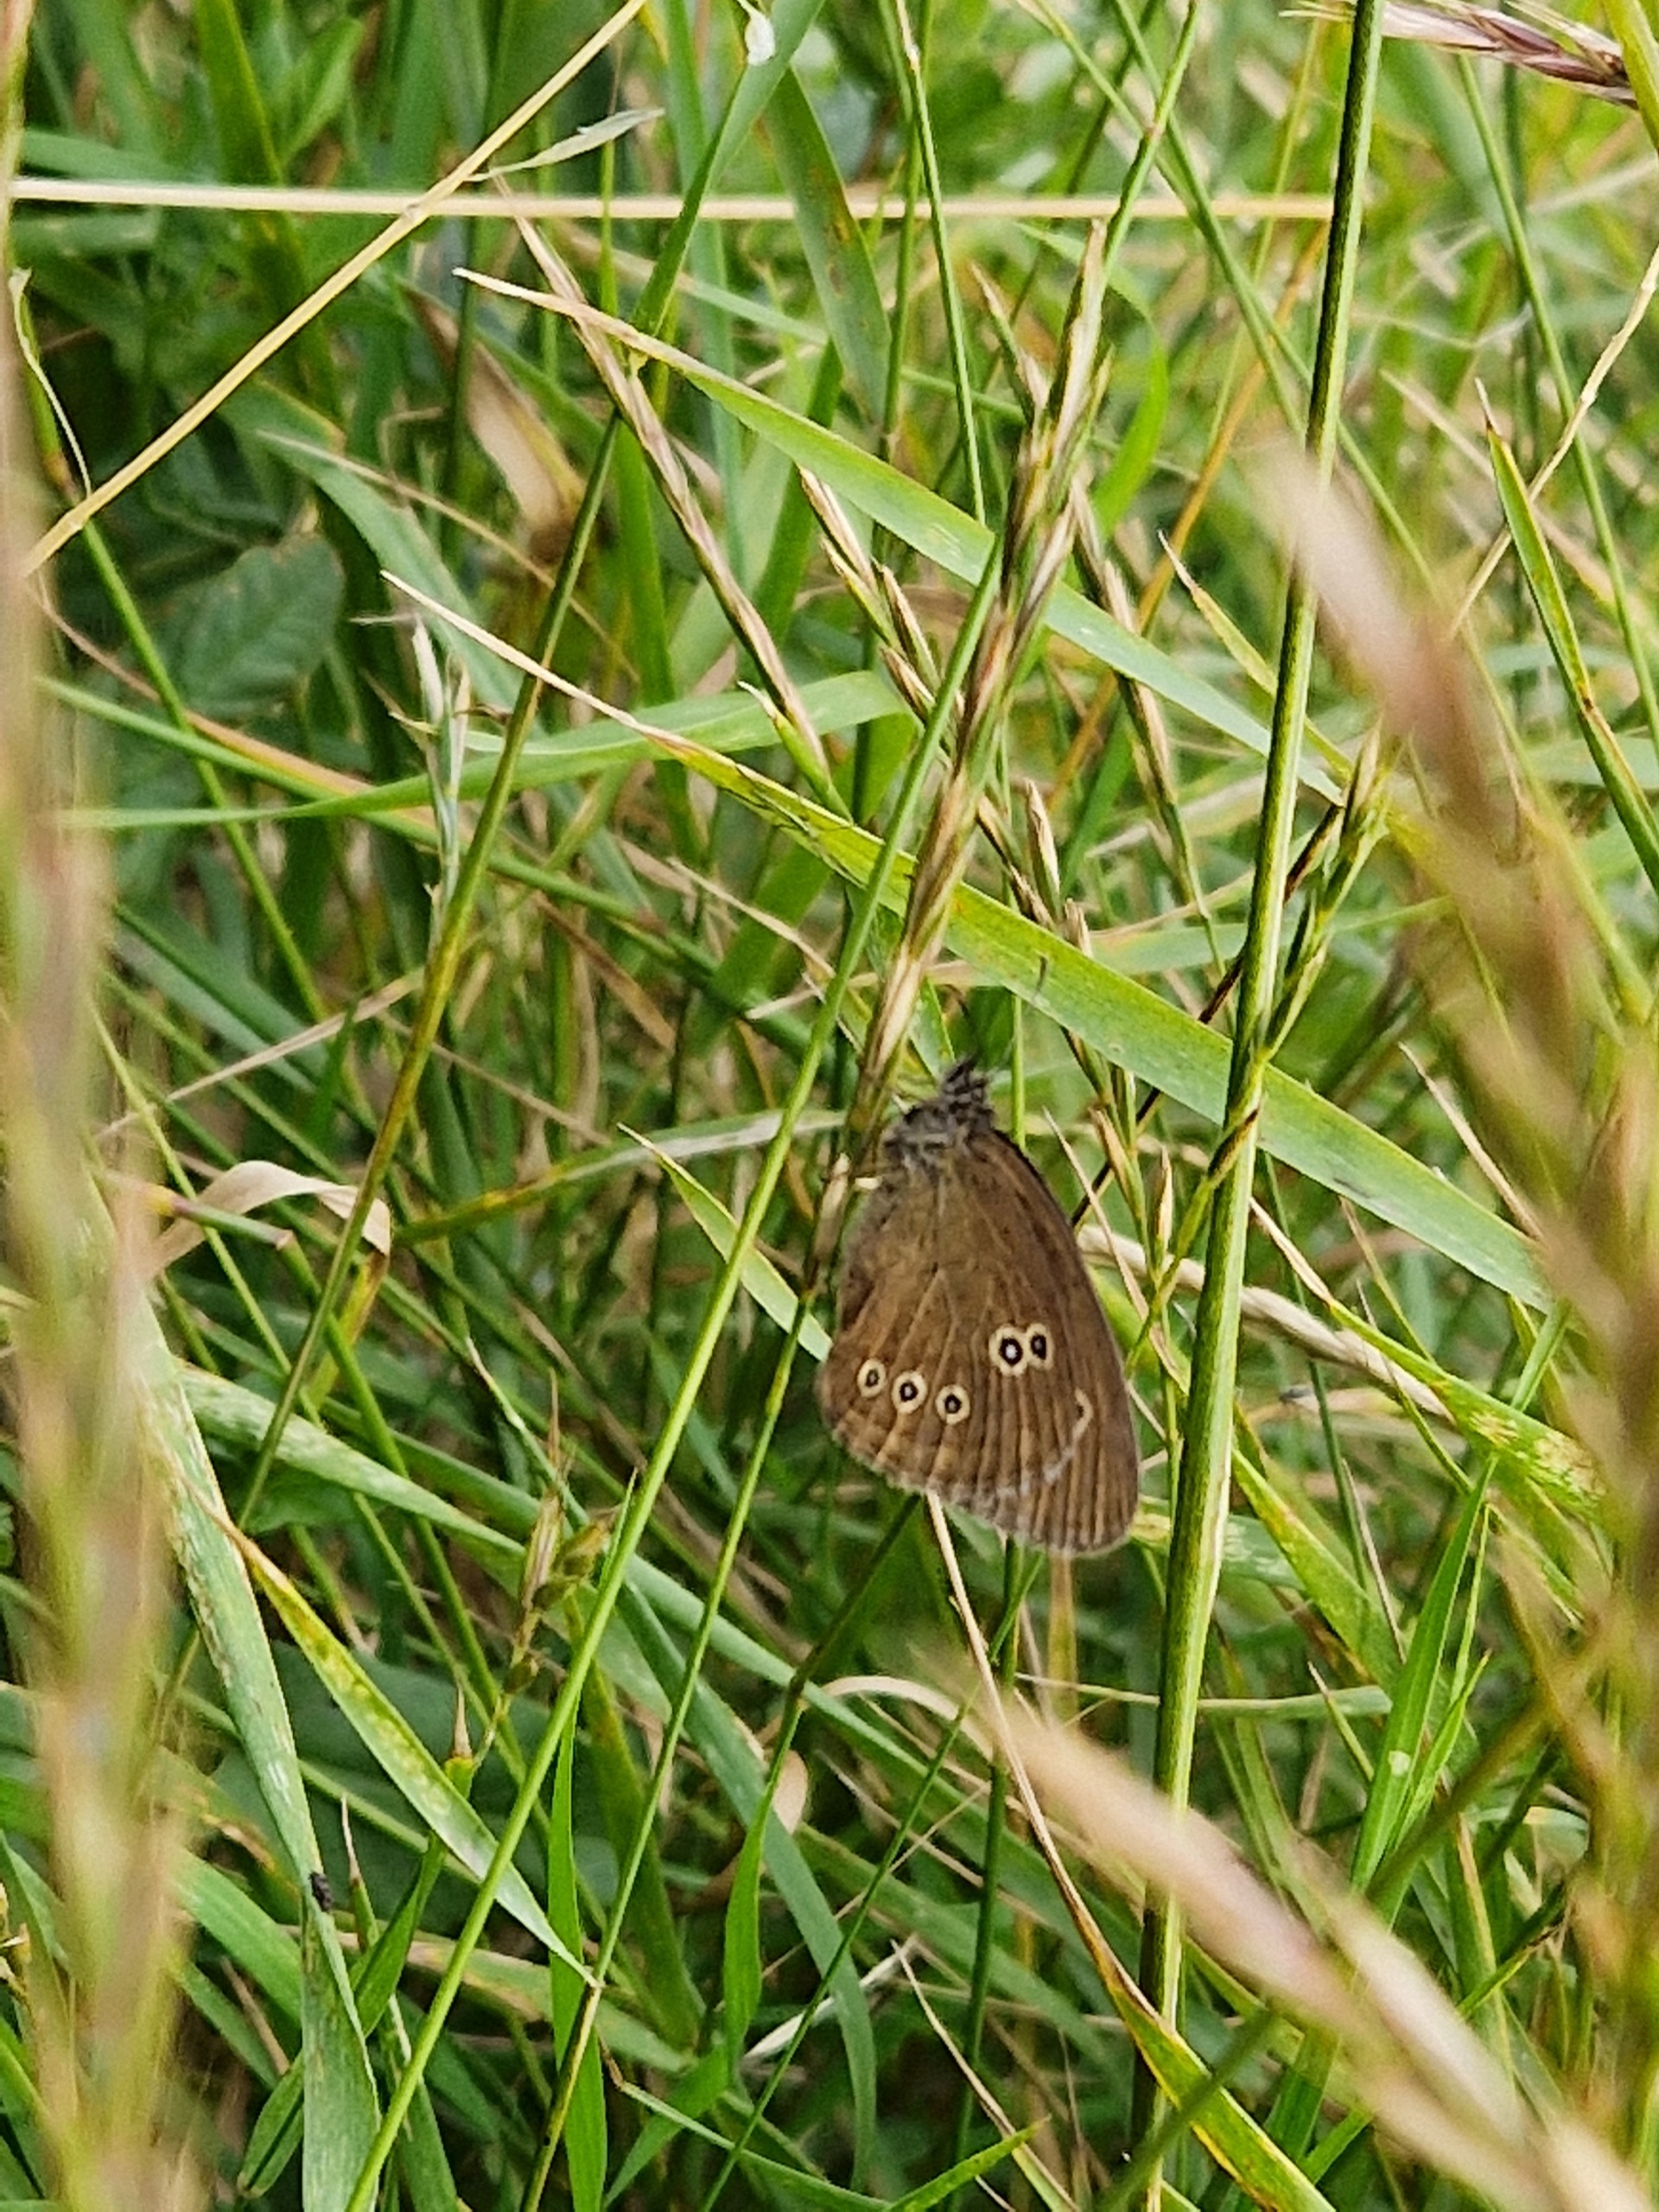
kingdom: Animalia
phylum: Arthropoda
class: Insecta
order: Lepidoptera
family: Nymphalidae
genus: Aphantopus
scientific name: Aphantopus hyperantus
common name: Engrandøje
